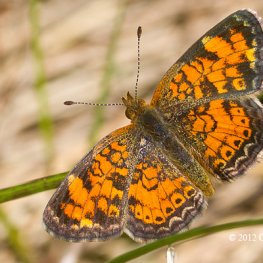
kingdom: Animalia
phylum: Arthropoda
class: Insecta
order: Lepidoptera
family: Nymphalidae
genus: Phyciodes
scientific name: Phyciodes tharos
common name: Pearl Crescent
